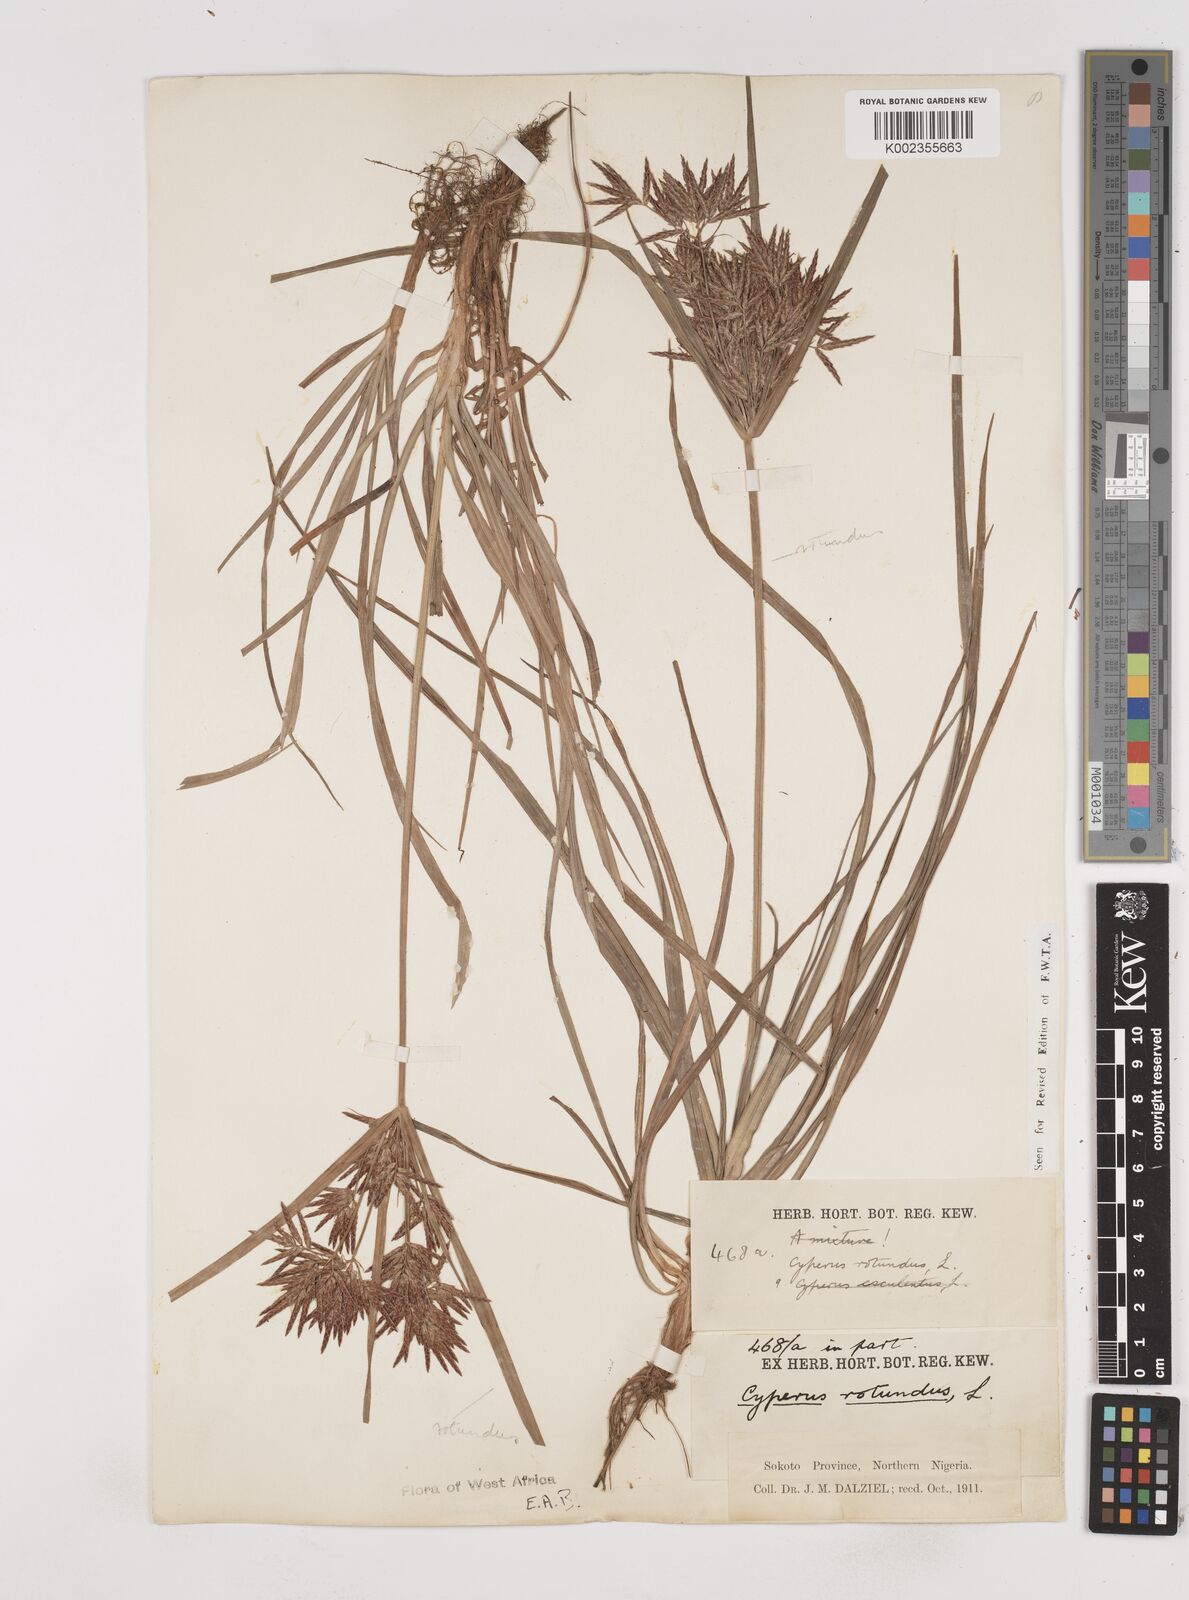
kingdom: Plantae
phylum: Tracheophyta
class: Liliopsida
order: Poales
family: Cyperaceae
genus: Cyperus
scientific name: Cyperus rotundus
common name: Nutgrass
